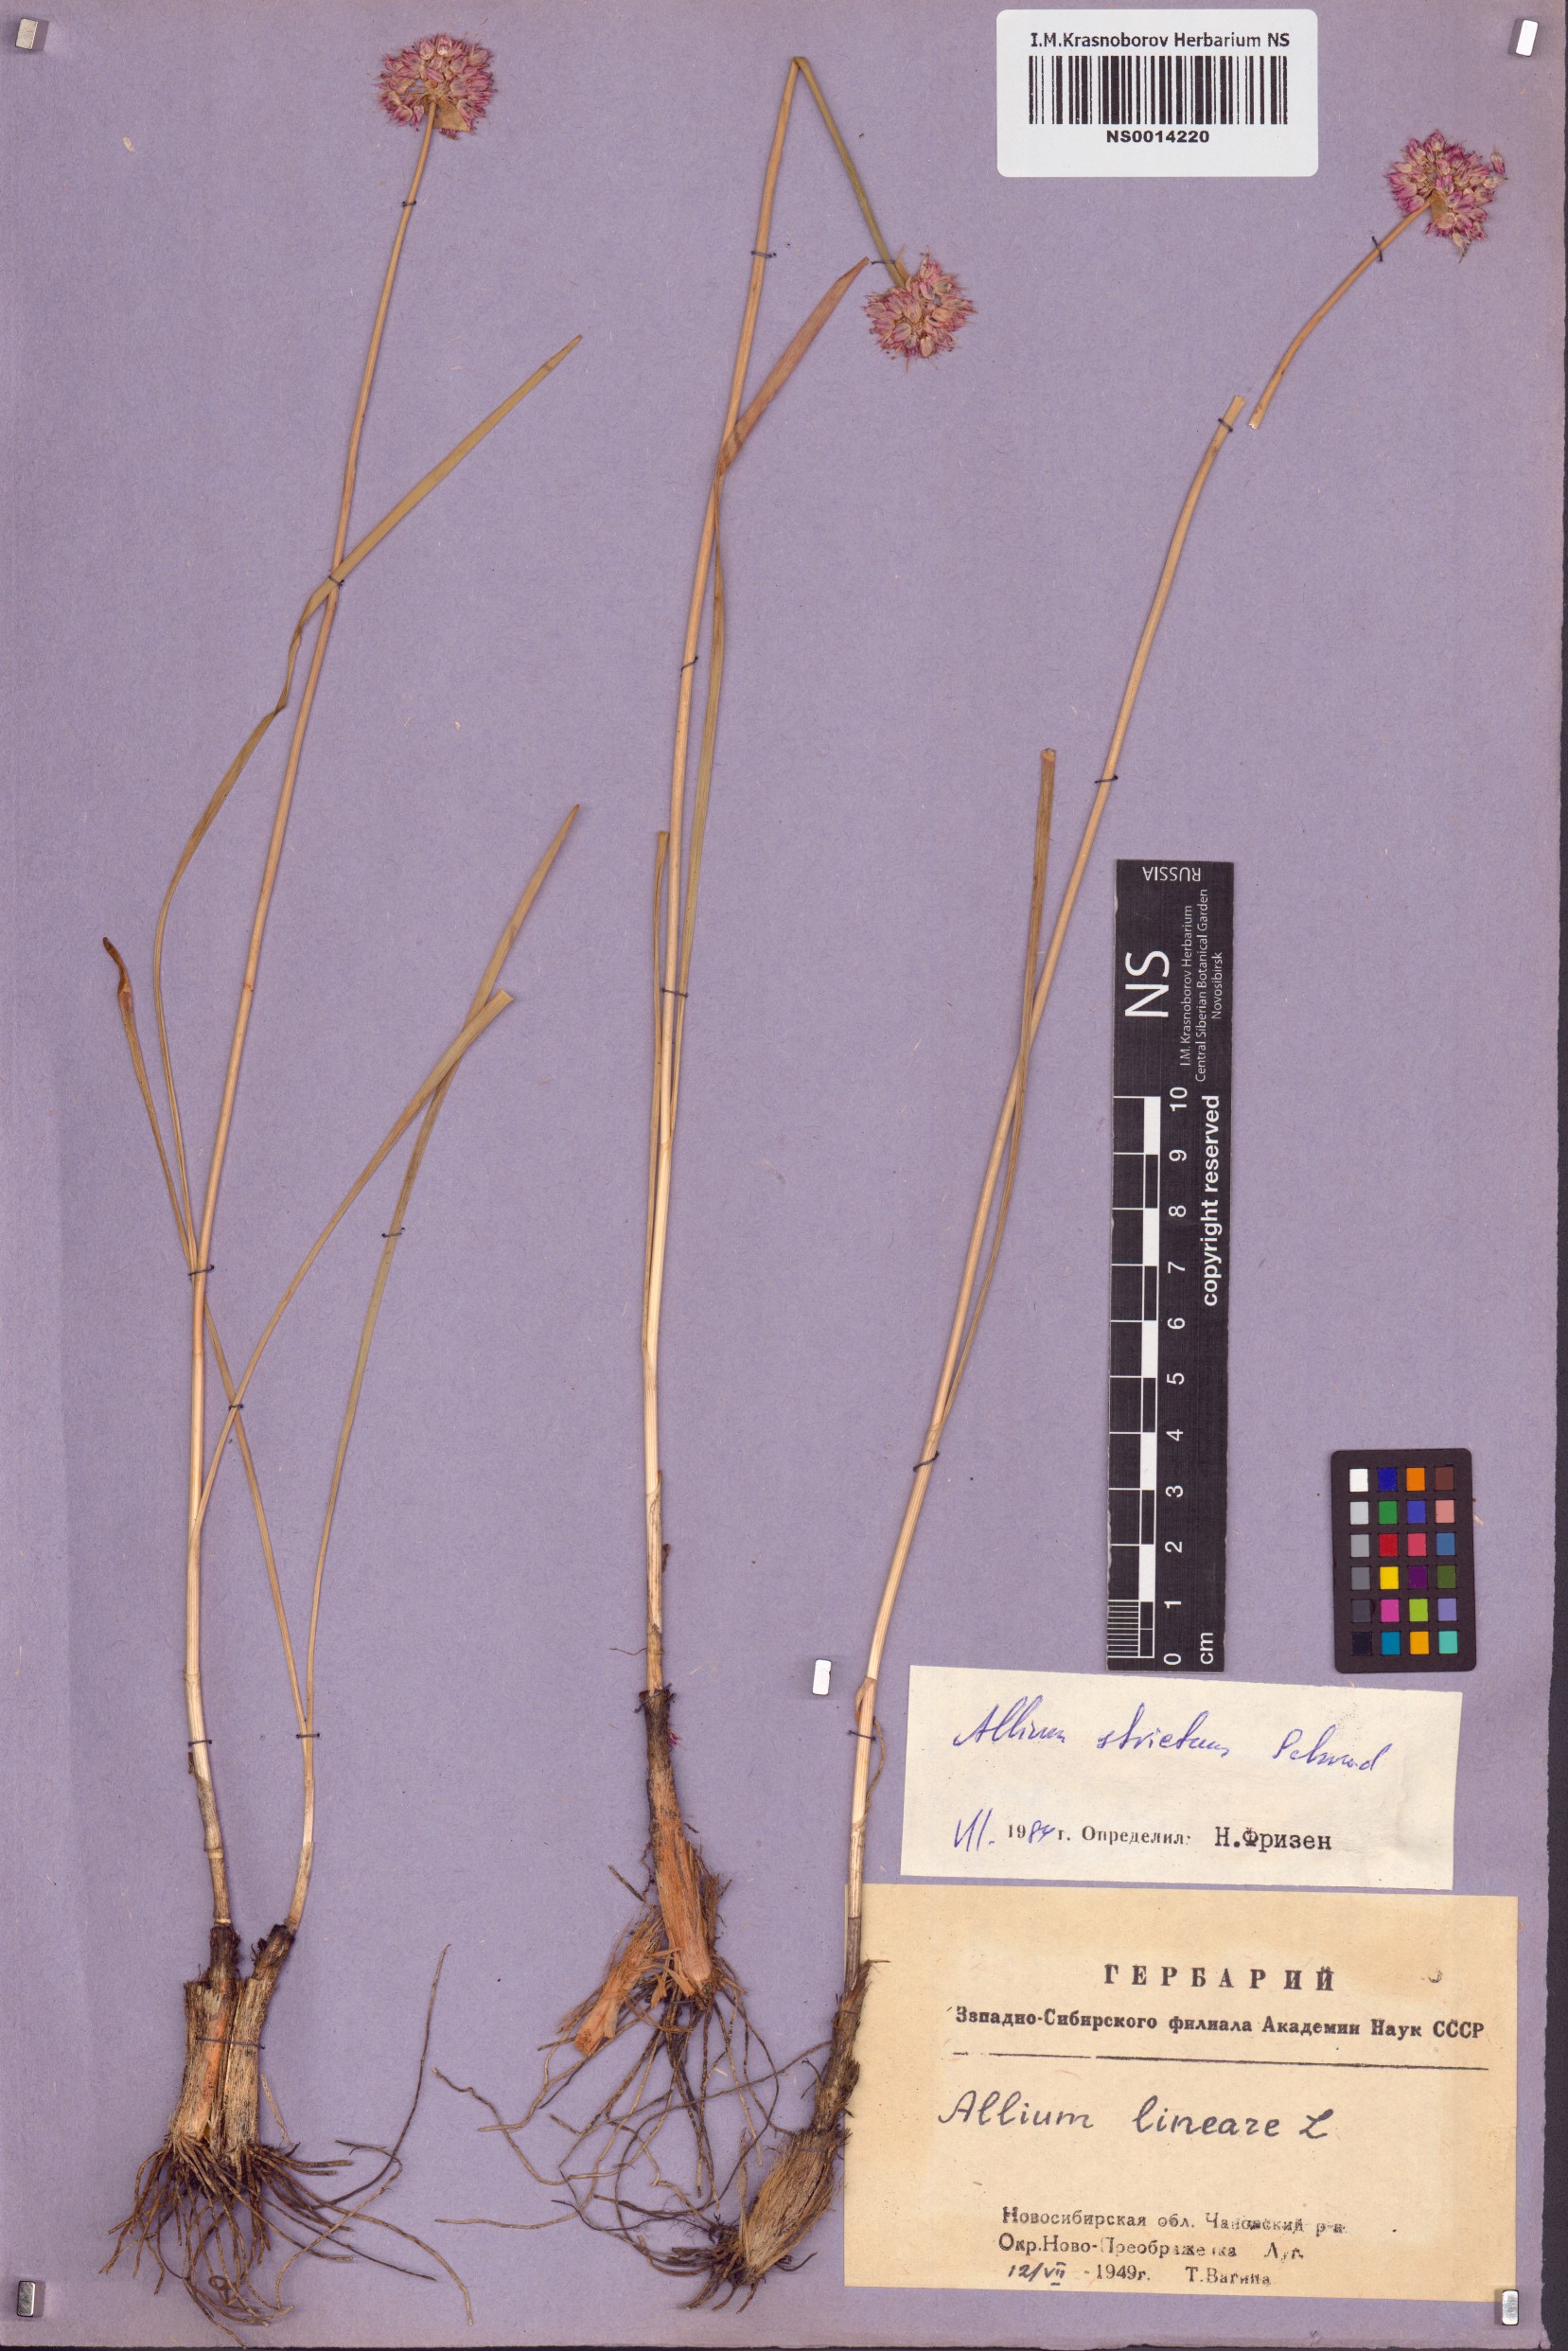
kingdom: Plantae
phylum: Tracheophyta
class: Liliopsida
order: Asparagales
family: Amaryllidaceae
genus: Allium
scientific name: Allium strictum
